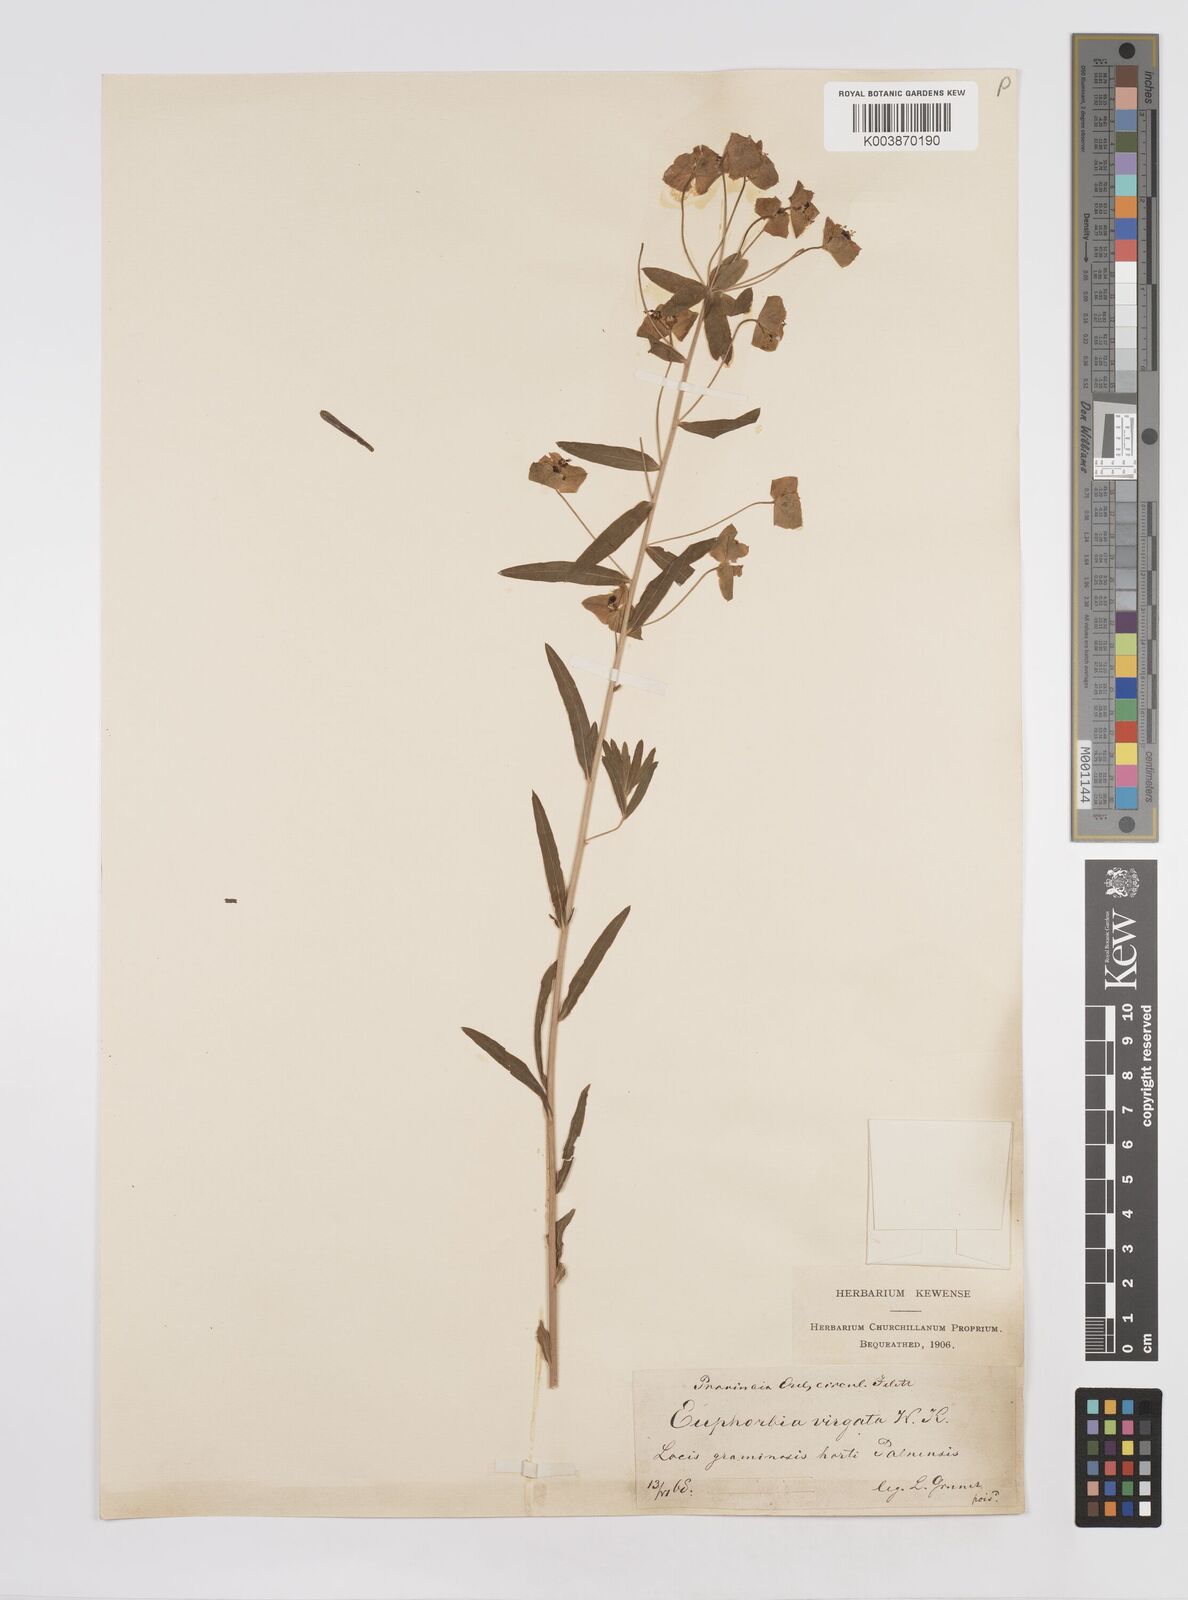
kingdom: Plantae
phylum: Tracheophyta
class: Magnoliopsida
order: Malpighiales
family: Euphorbiaceae
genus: Euphorbia
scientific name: Euphorbia
